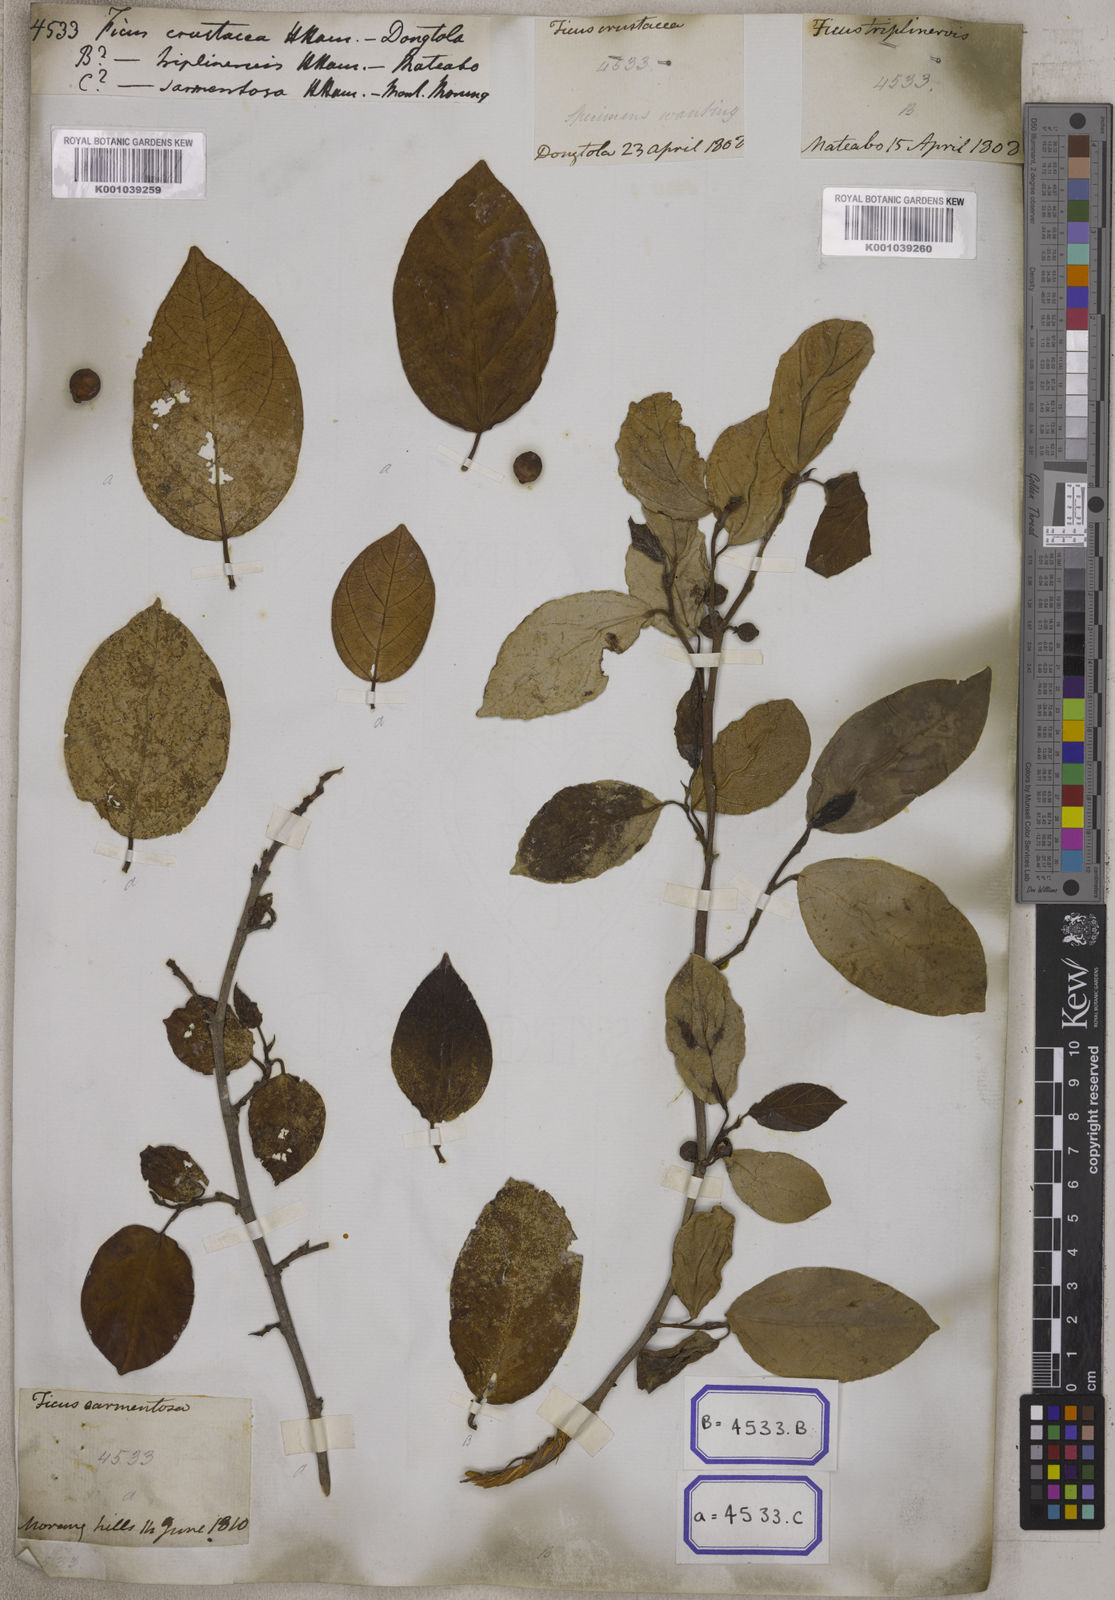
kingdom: Plantae
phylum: Tracheophyta
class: Magnoliopsida
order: Rosales
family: Moraceae
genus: Ficus
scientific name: Ficus
